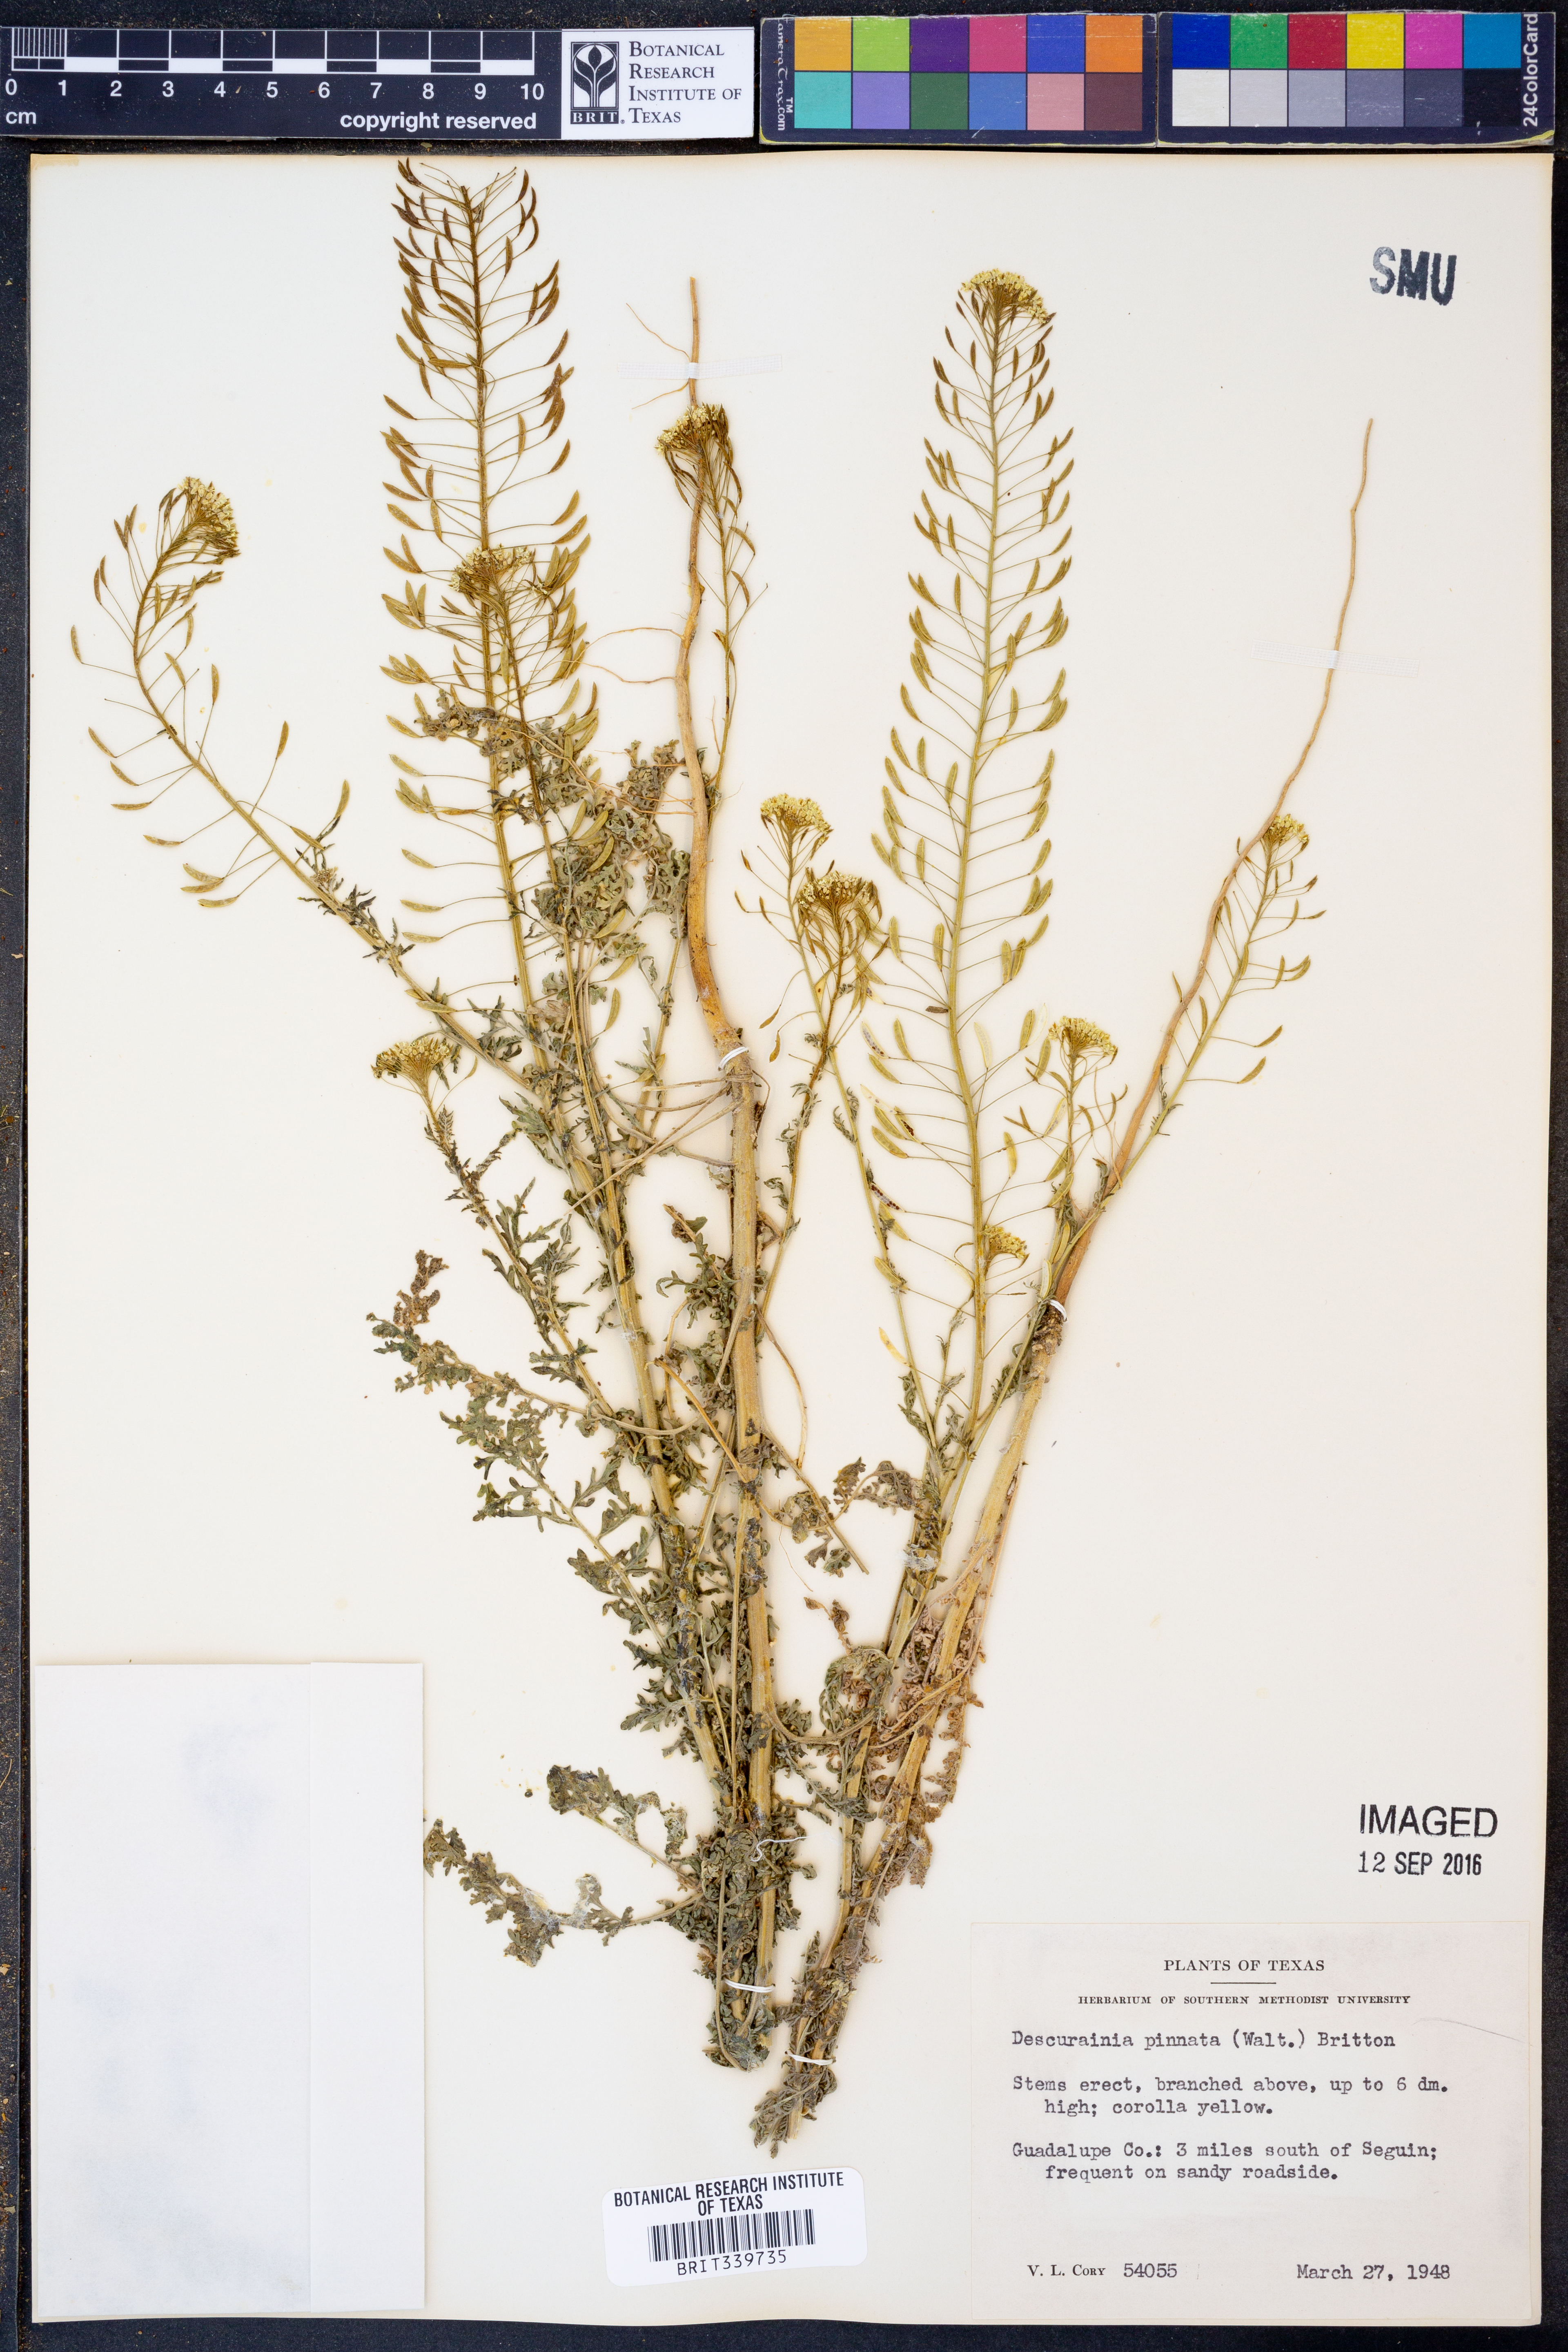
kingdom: Plantae
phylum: Tracheophyta
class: Magnoliopsida
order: Brassicales
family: Brassicaceae
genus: Descurainia
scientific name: Descurainia pinnata
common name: Western tansy mustard
